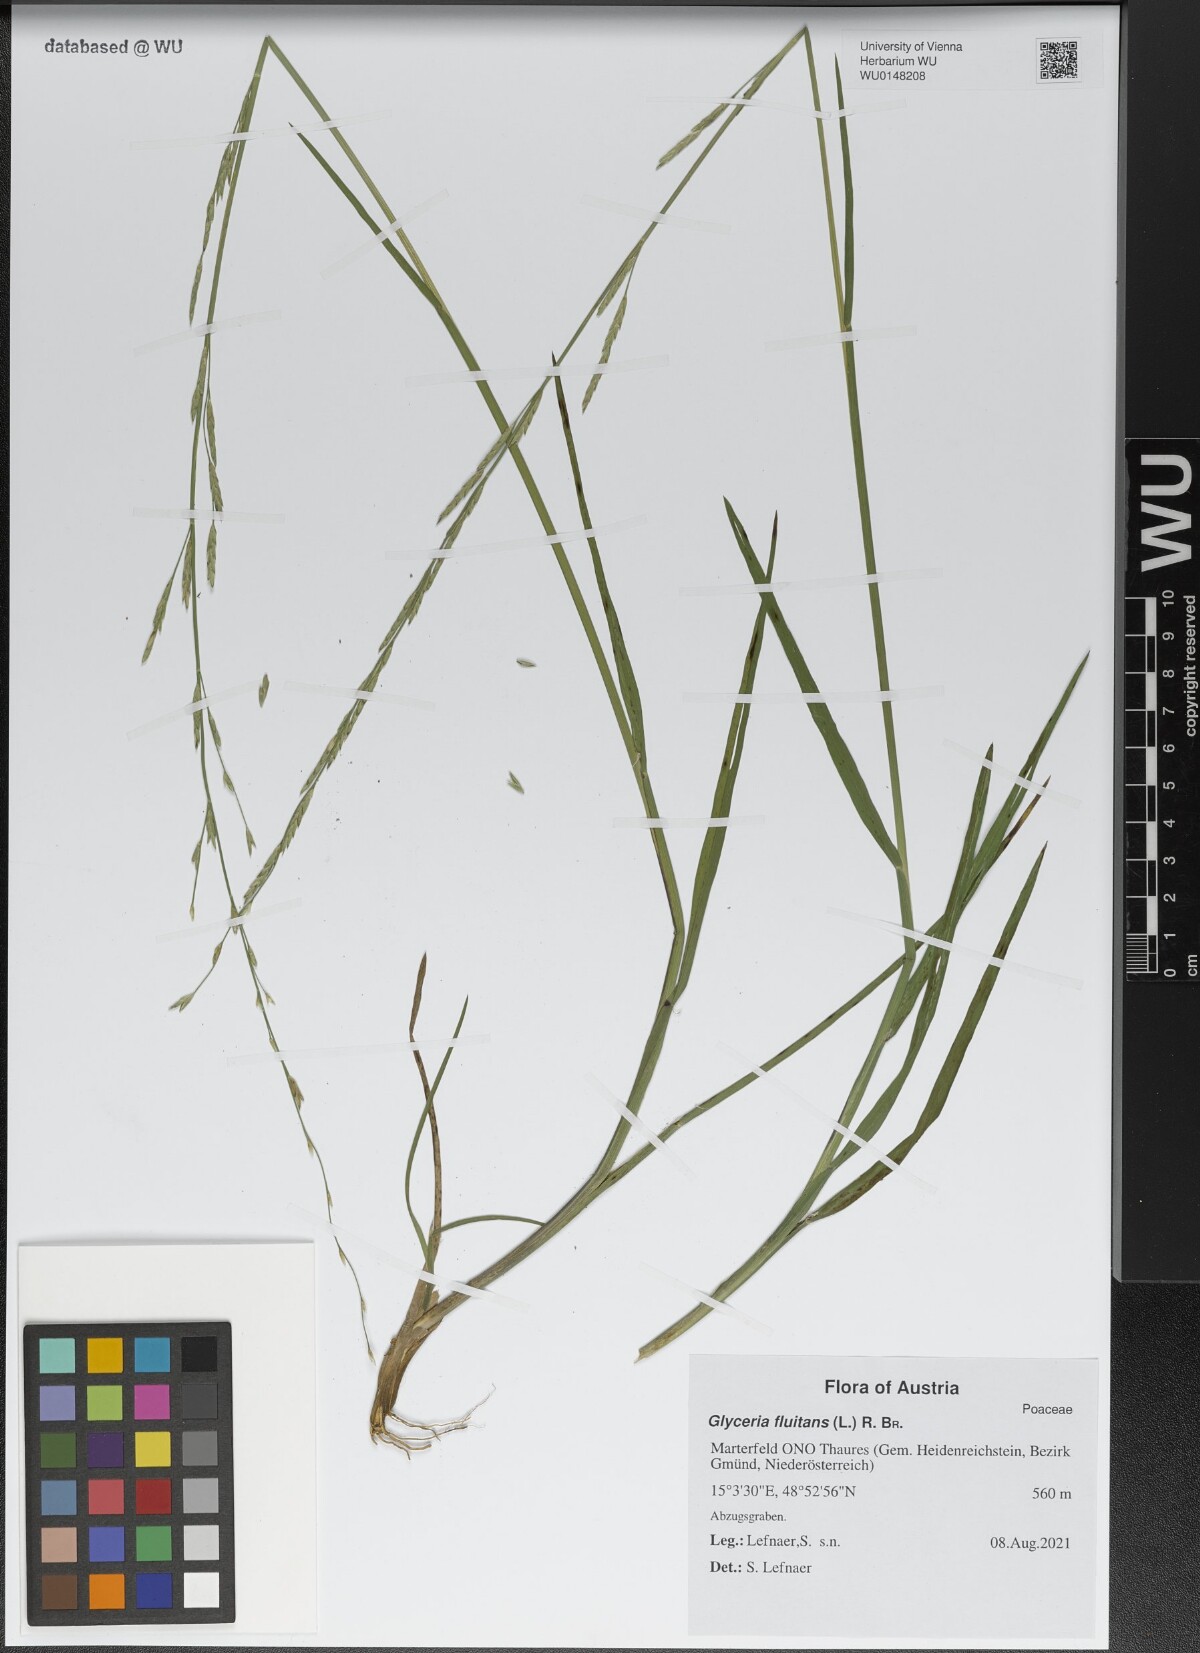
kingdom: Plantae
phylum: Tracheophyta
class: Liliopsida
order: Poales
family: Poaceae
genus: Glyceria
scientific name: Glyceria fluitans
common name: Floating sweet-grass
